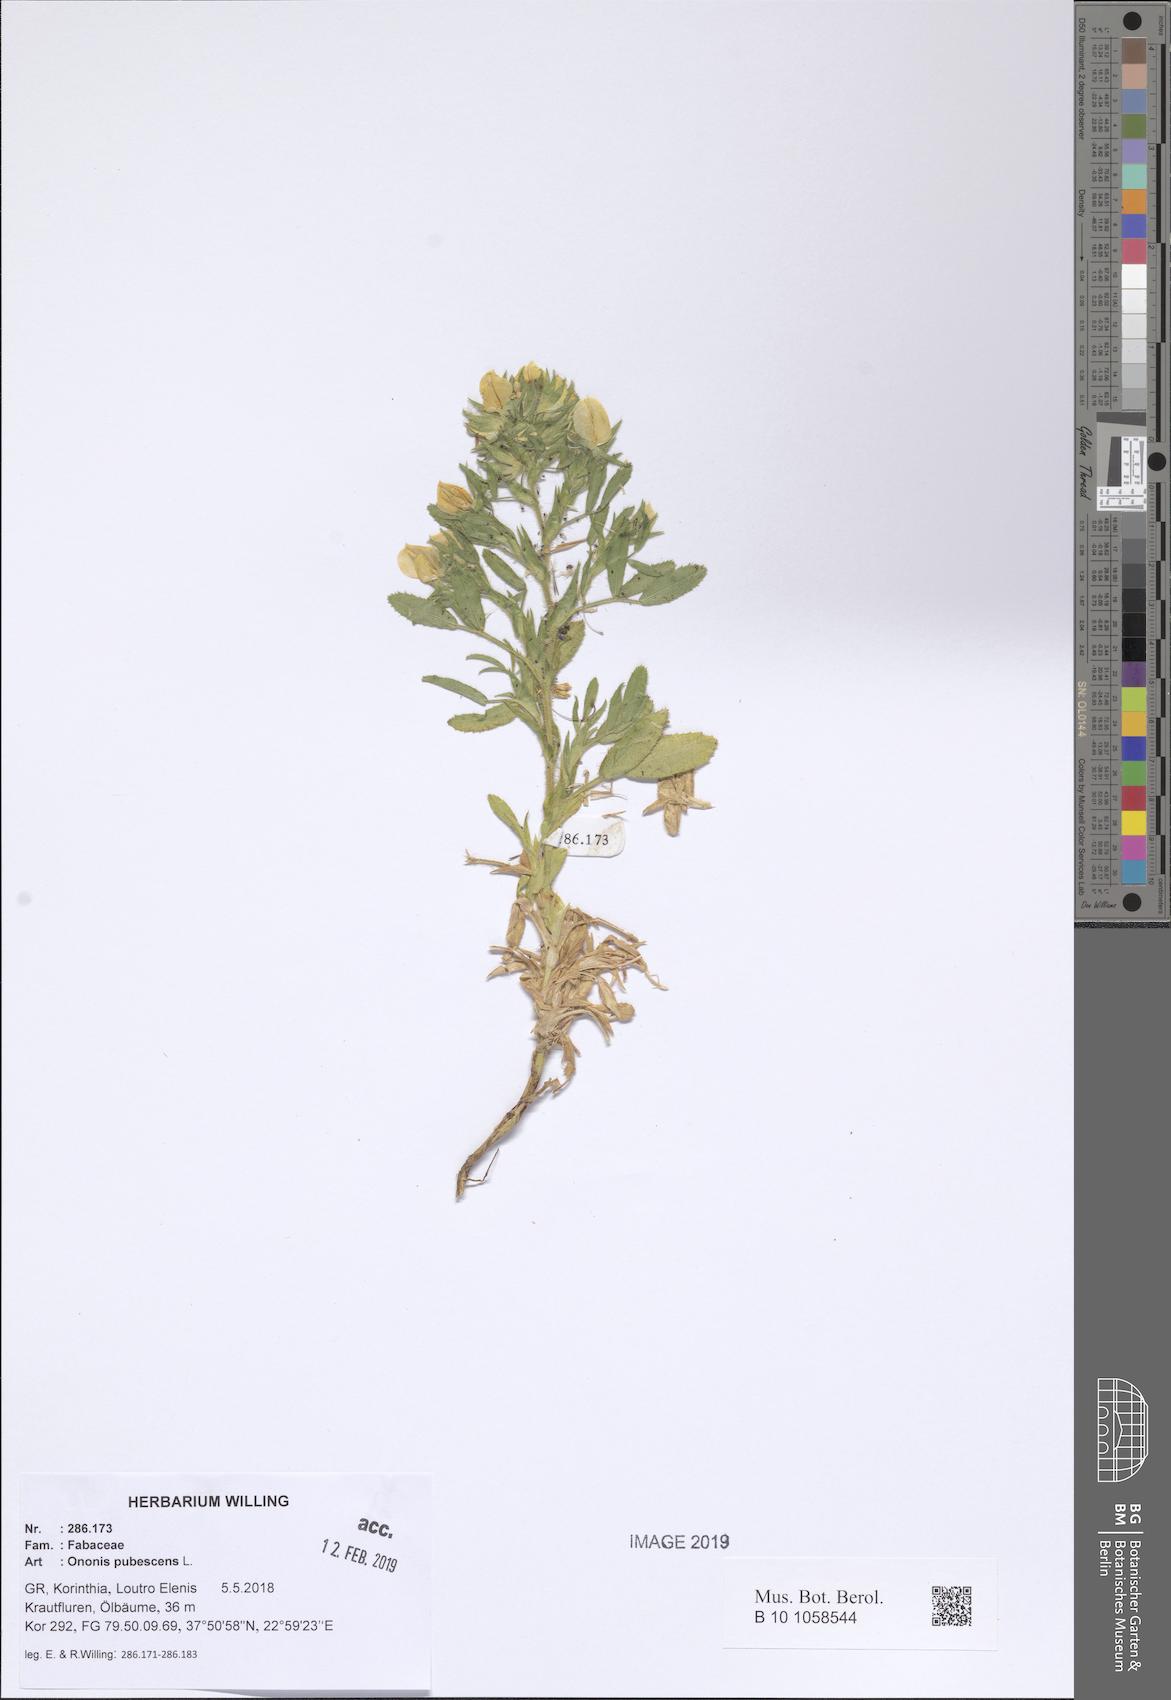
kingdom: Plantae
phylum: Tracheophyta
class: Magnoliopsida
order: Fabales
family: Fabaceae
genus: Ononis
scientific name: Ononis pubescens
